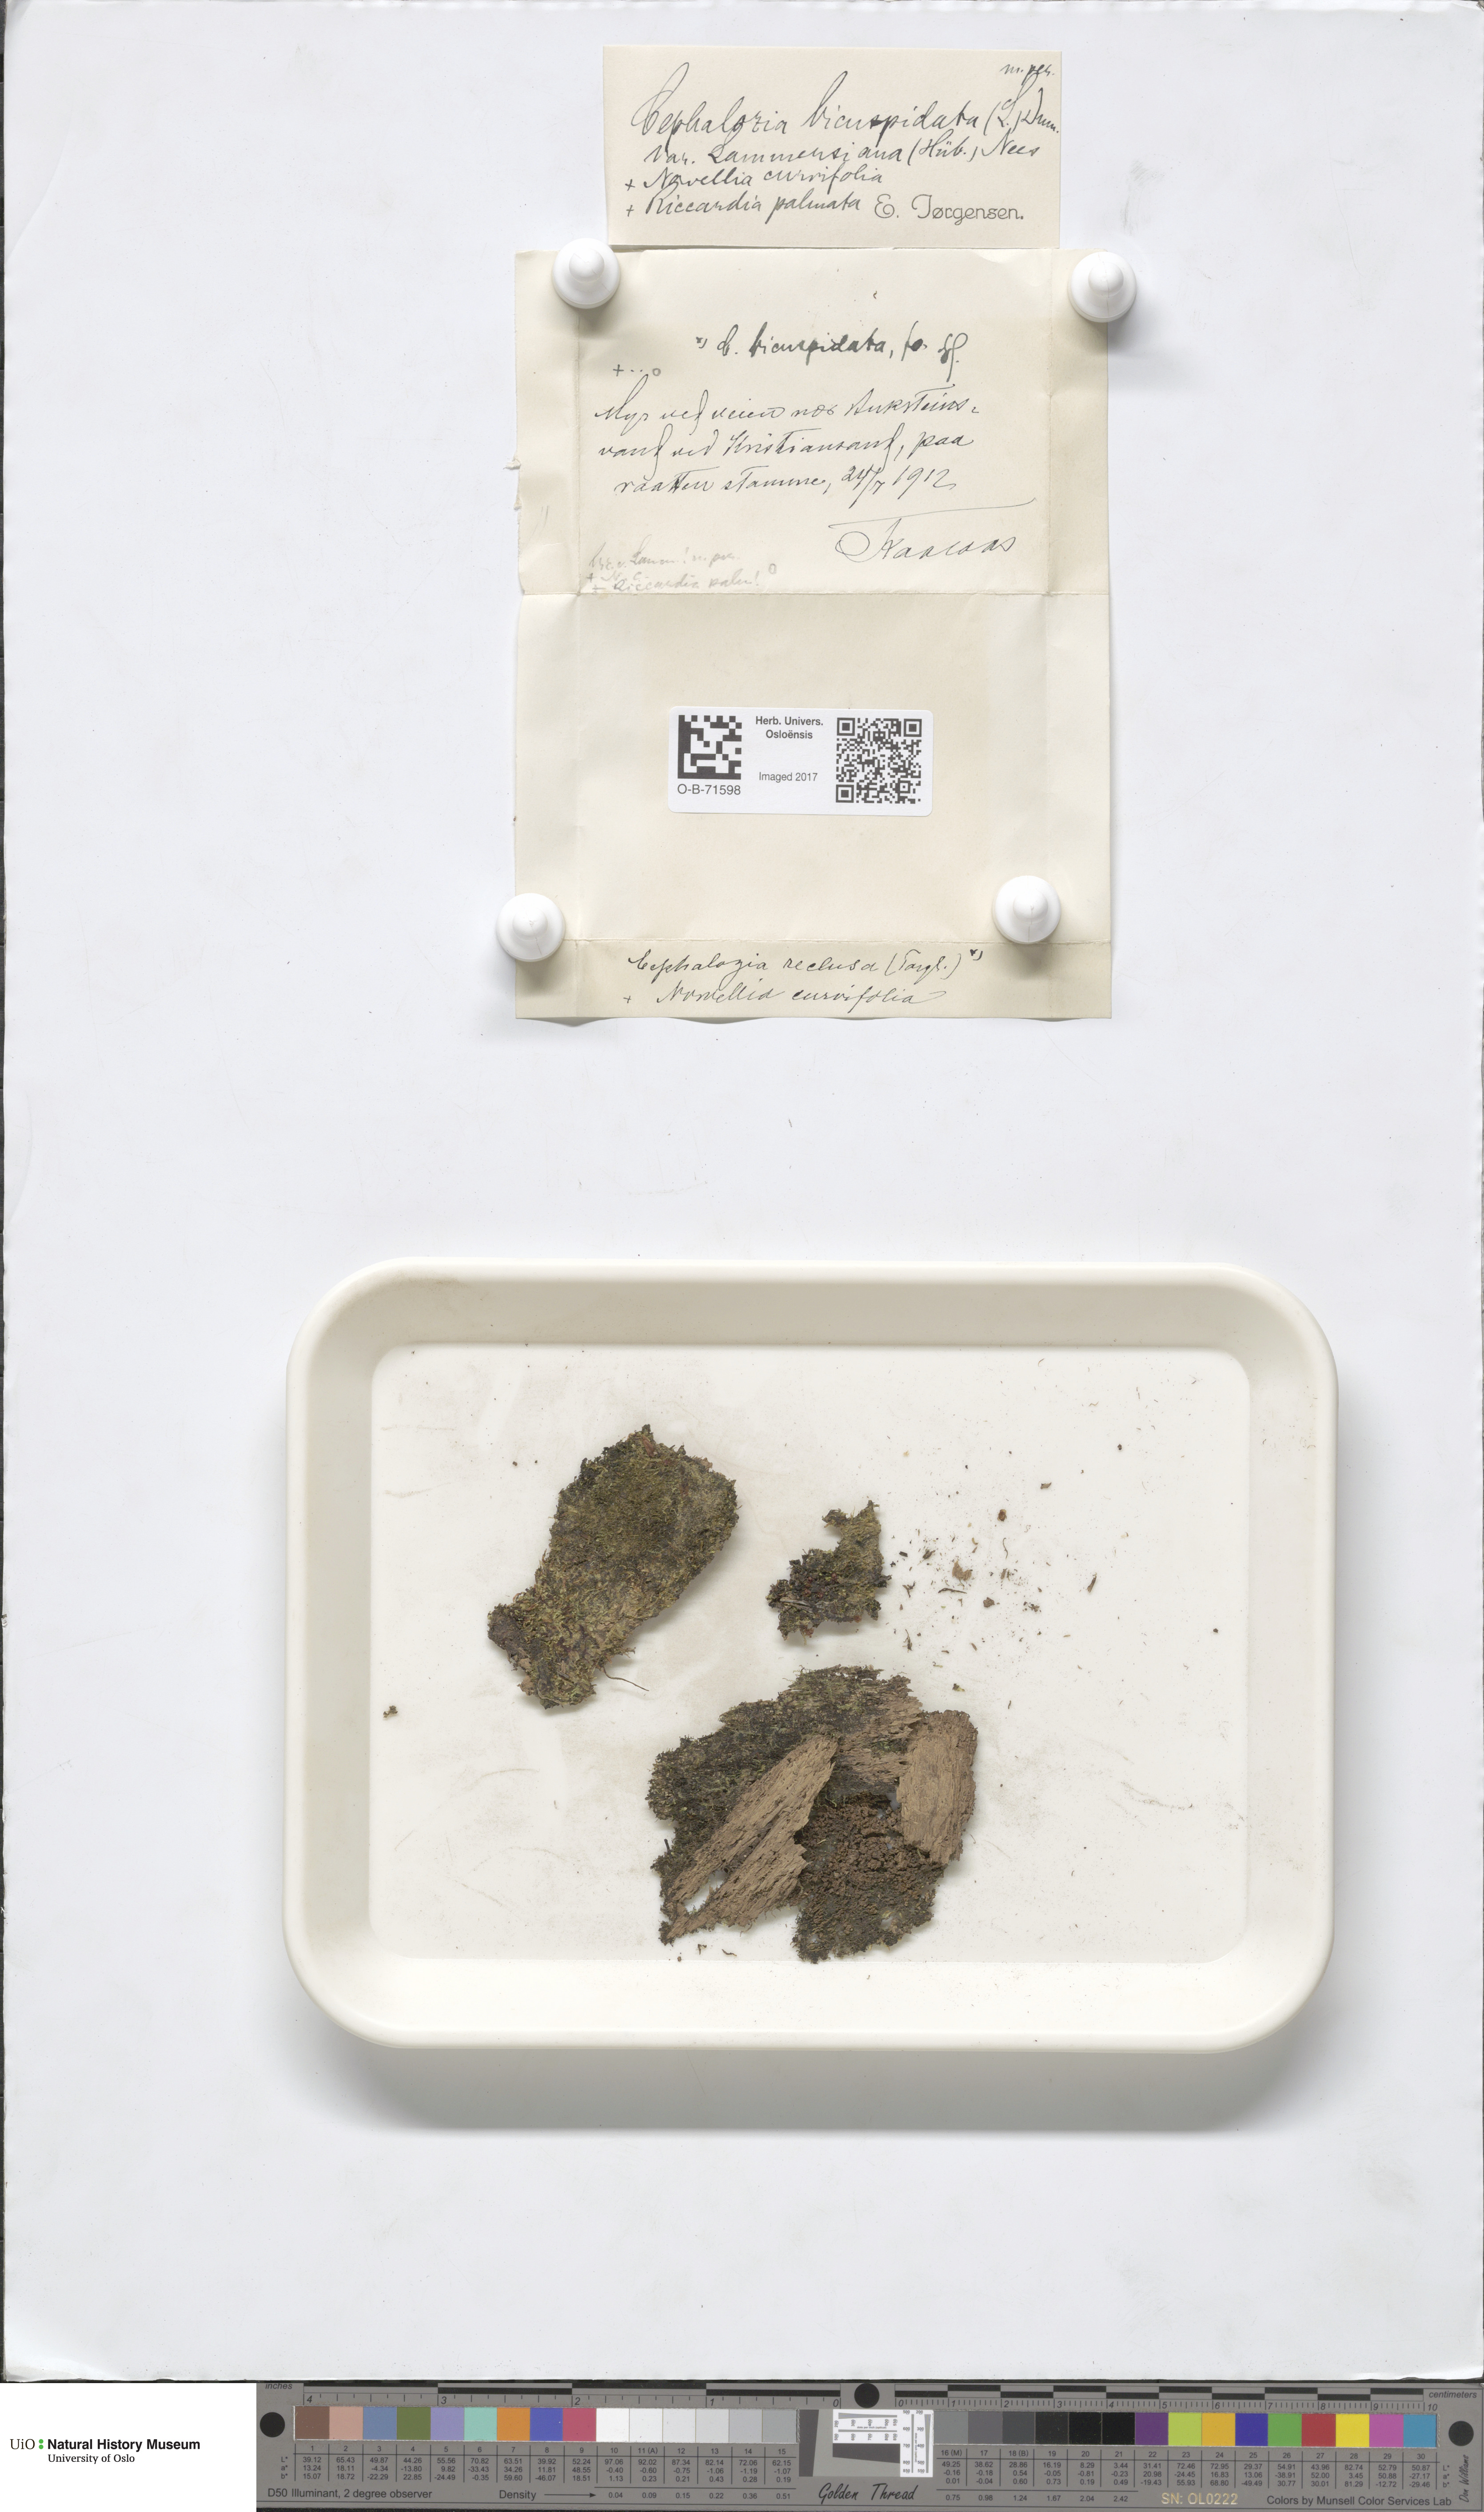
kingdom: Plantae
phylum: Marchantiophyta
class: Jungermanniopsida
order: Jungermanniales
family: Cephaloziaceae
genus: Cephalozia
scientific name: Cephalozia bicuspidata
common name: Two-horned pincerwort
